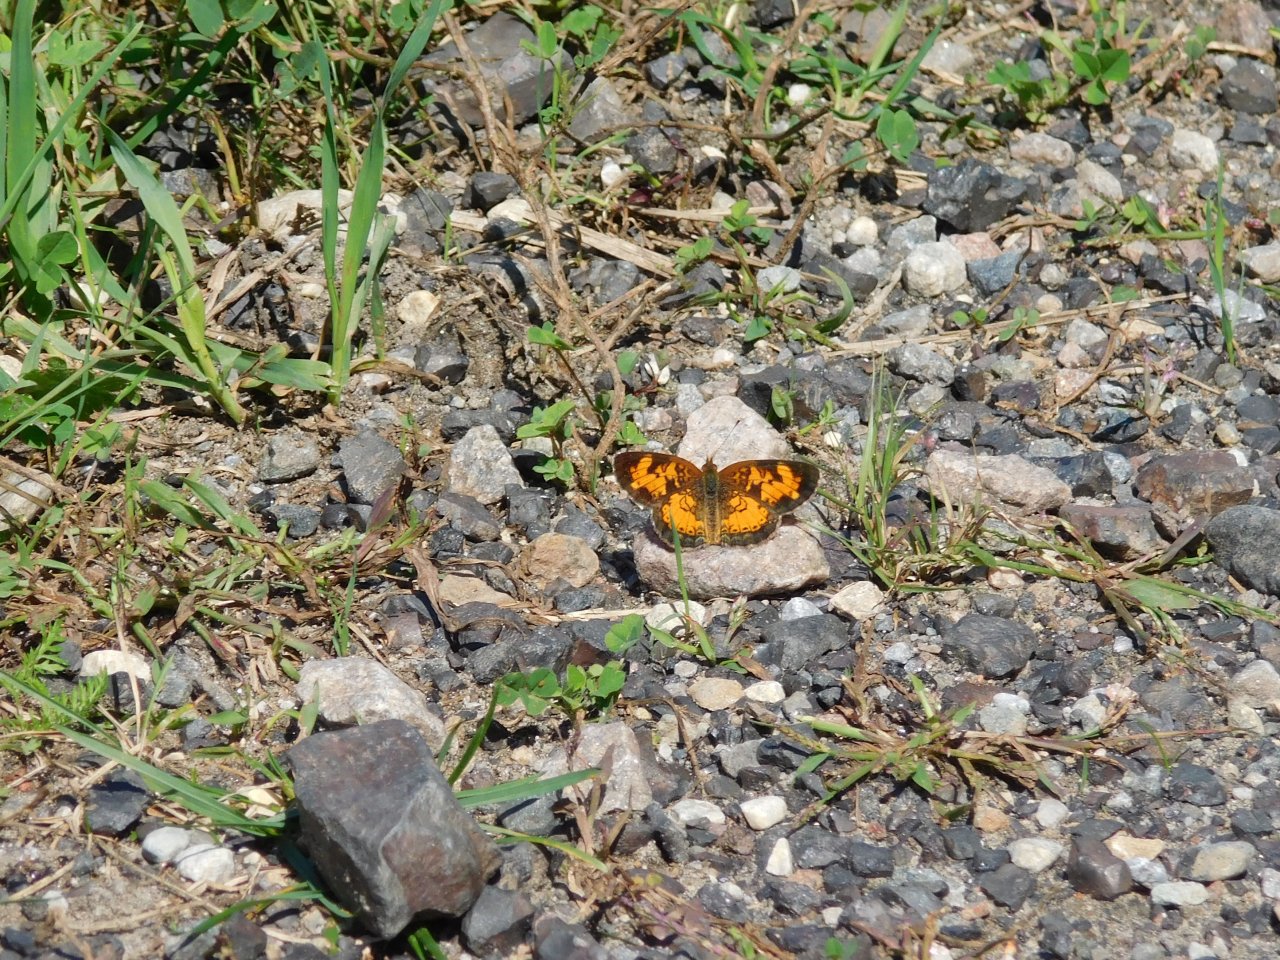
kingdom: Animalia
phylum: Arthropoda
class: Insecta
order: Lepidoptera
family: Nymphalidae
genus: Phyciodes
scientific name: Phyciodes tharos
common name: Pearl Crescent
